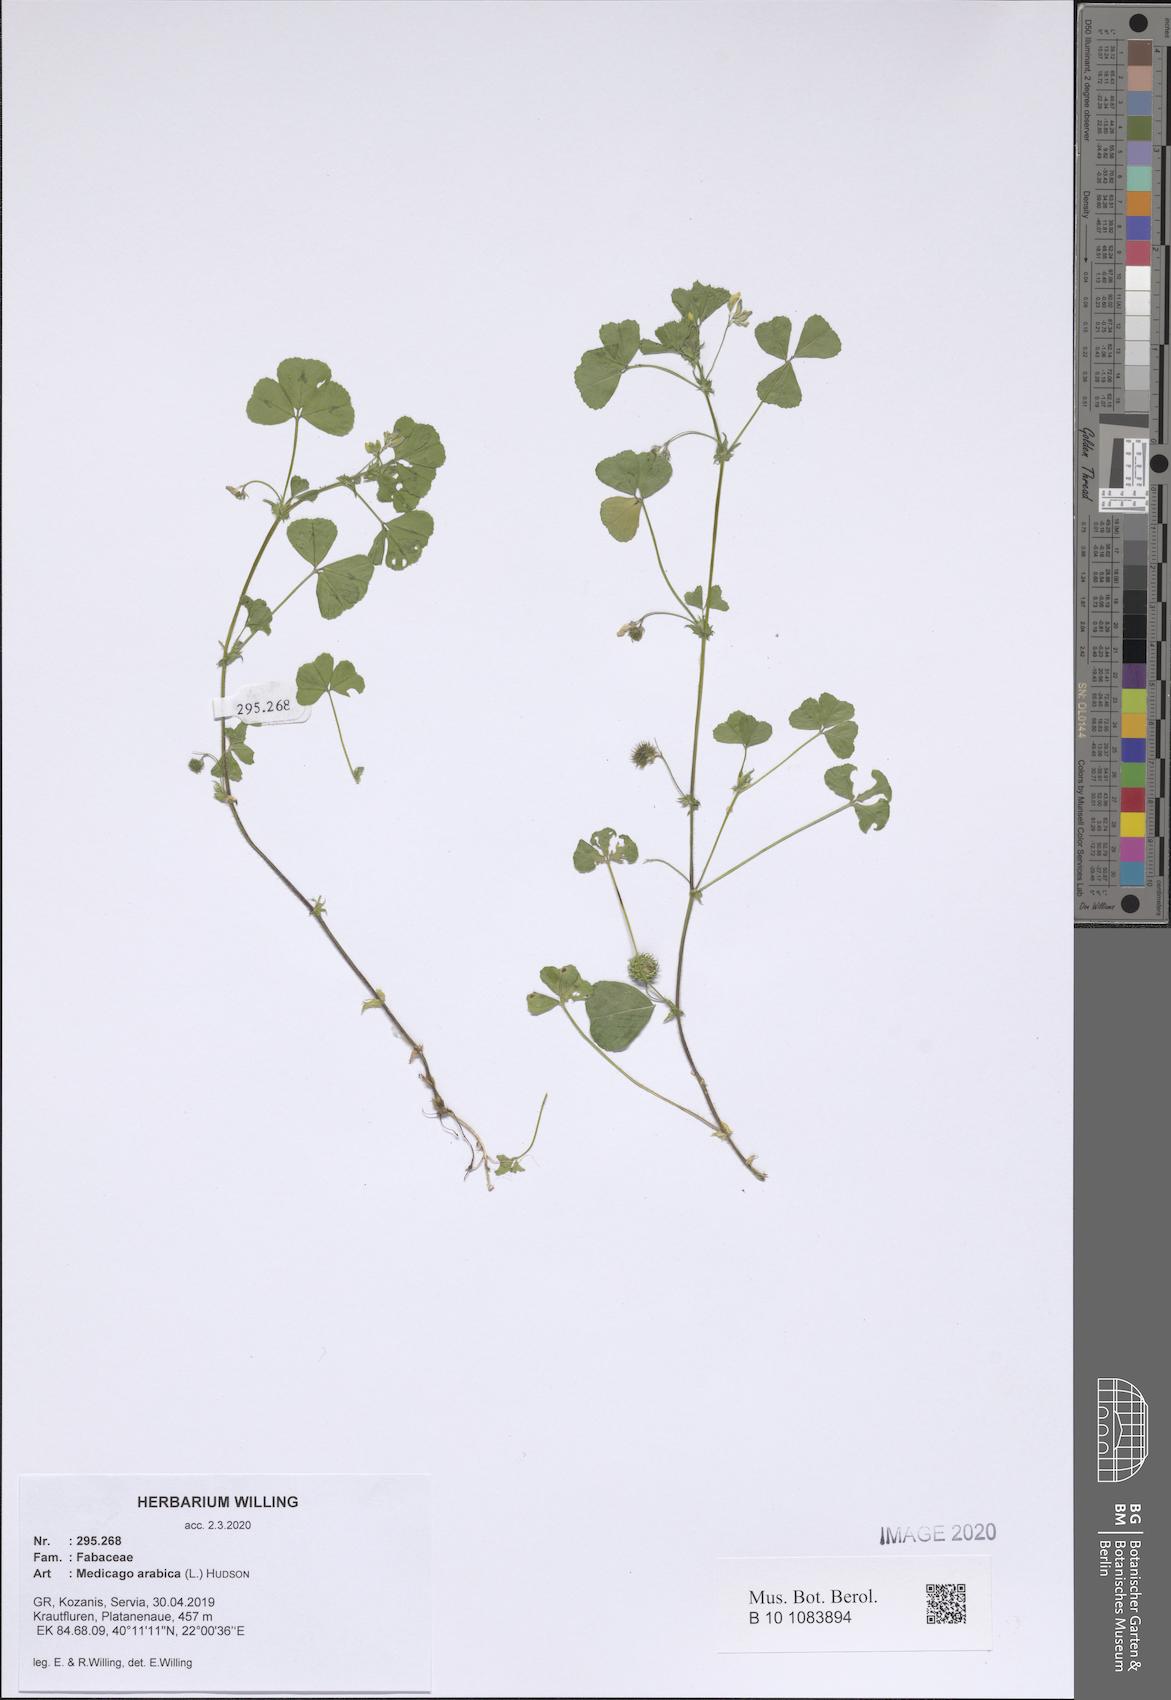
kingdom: Plantae
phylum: Tracheophyta
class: Magnoliopsida
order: Fabales
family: Fabaceae
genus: Medicago
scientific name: Medicago arabica
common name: Spotted medick
